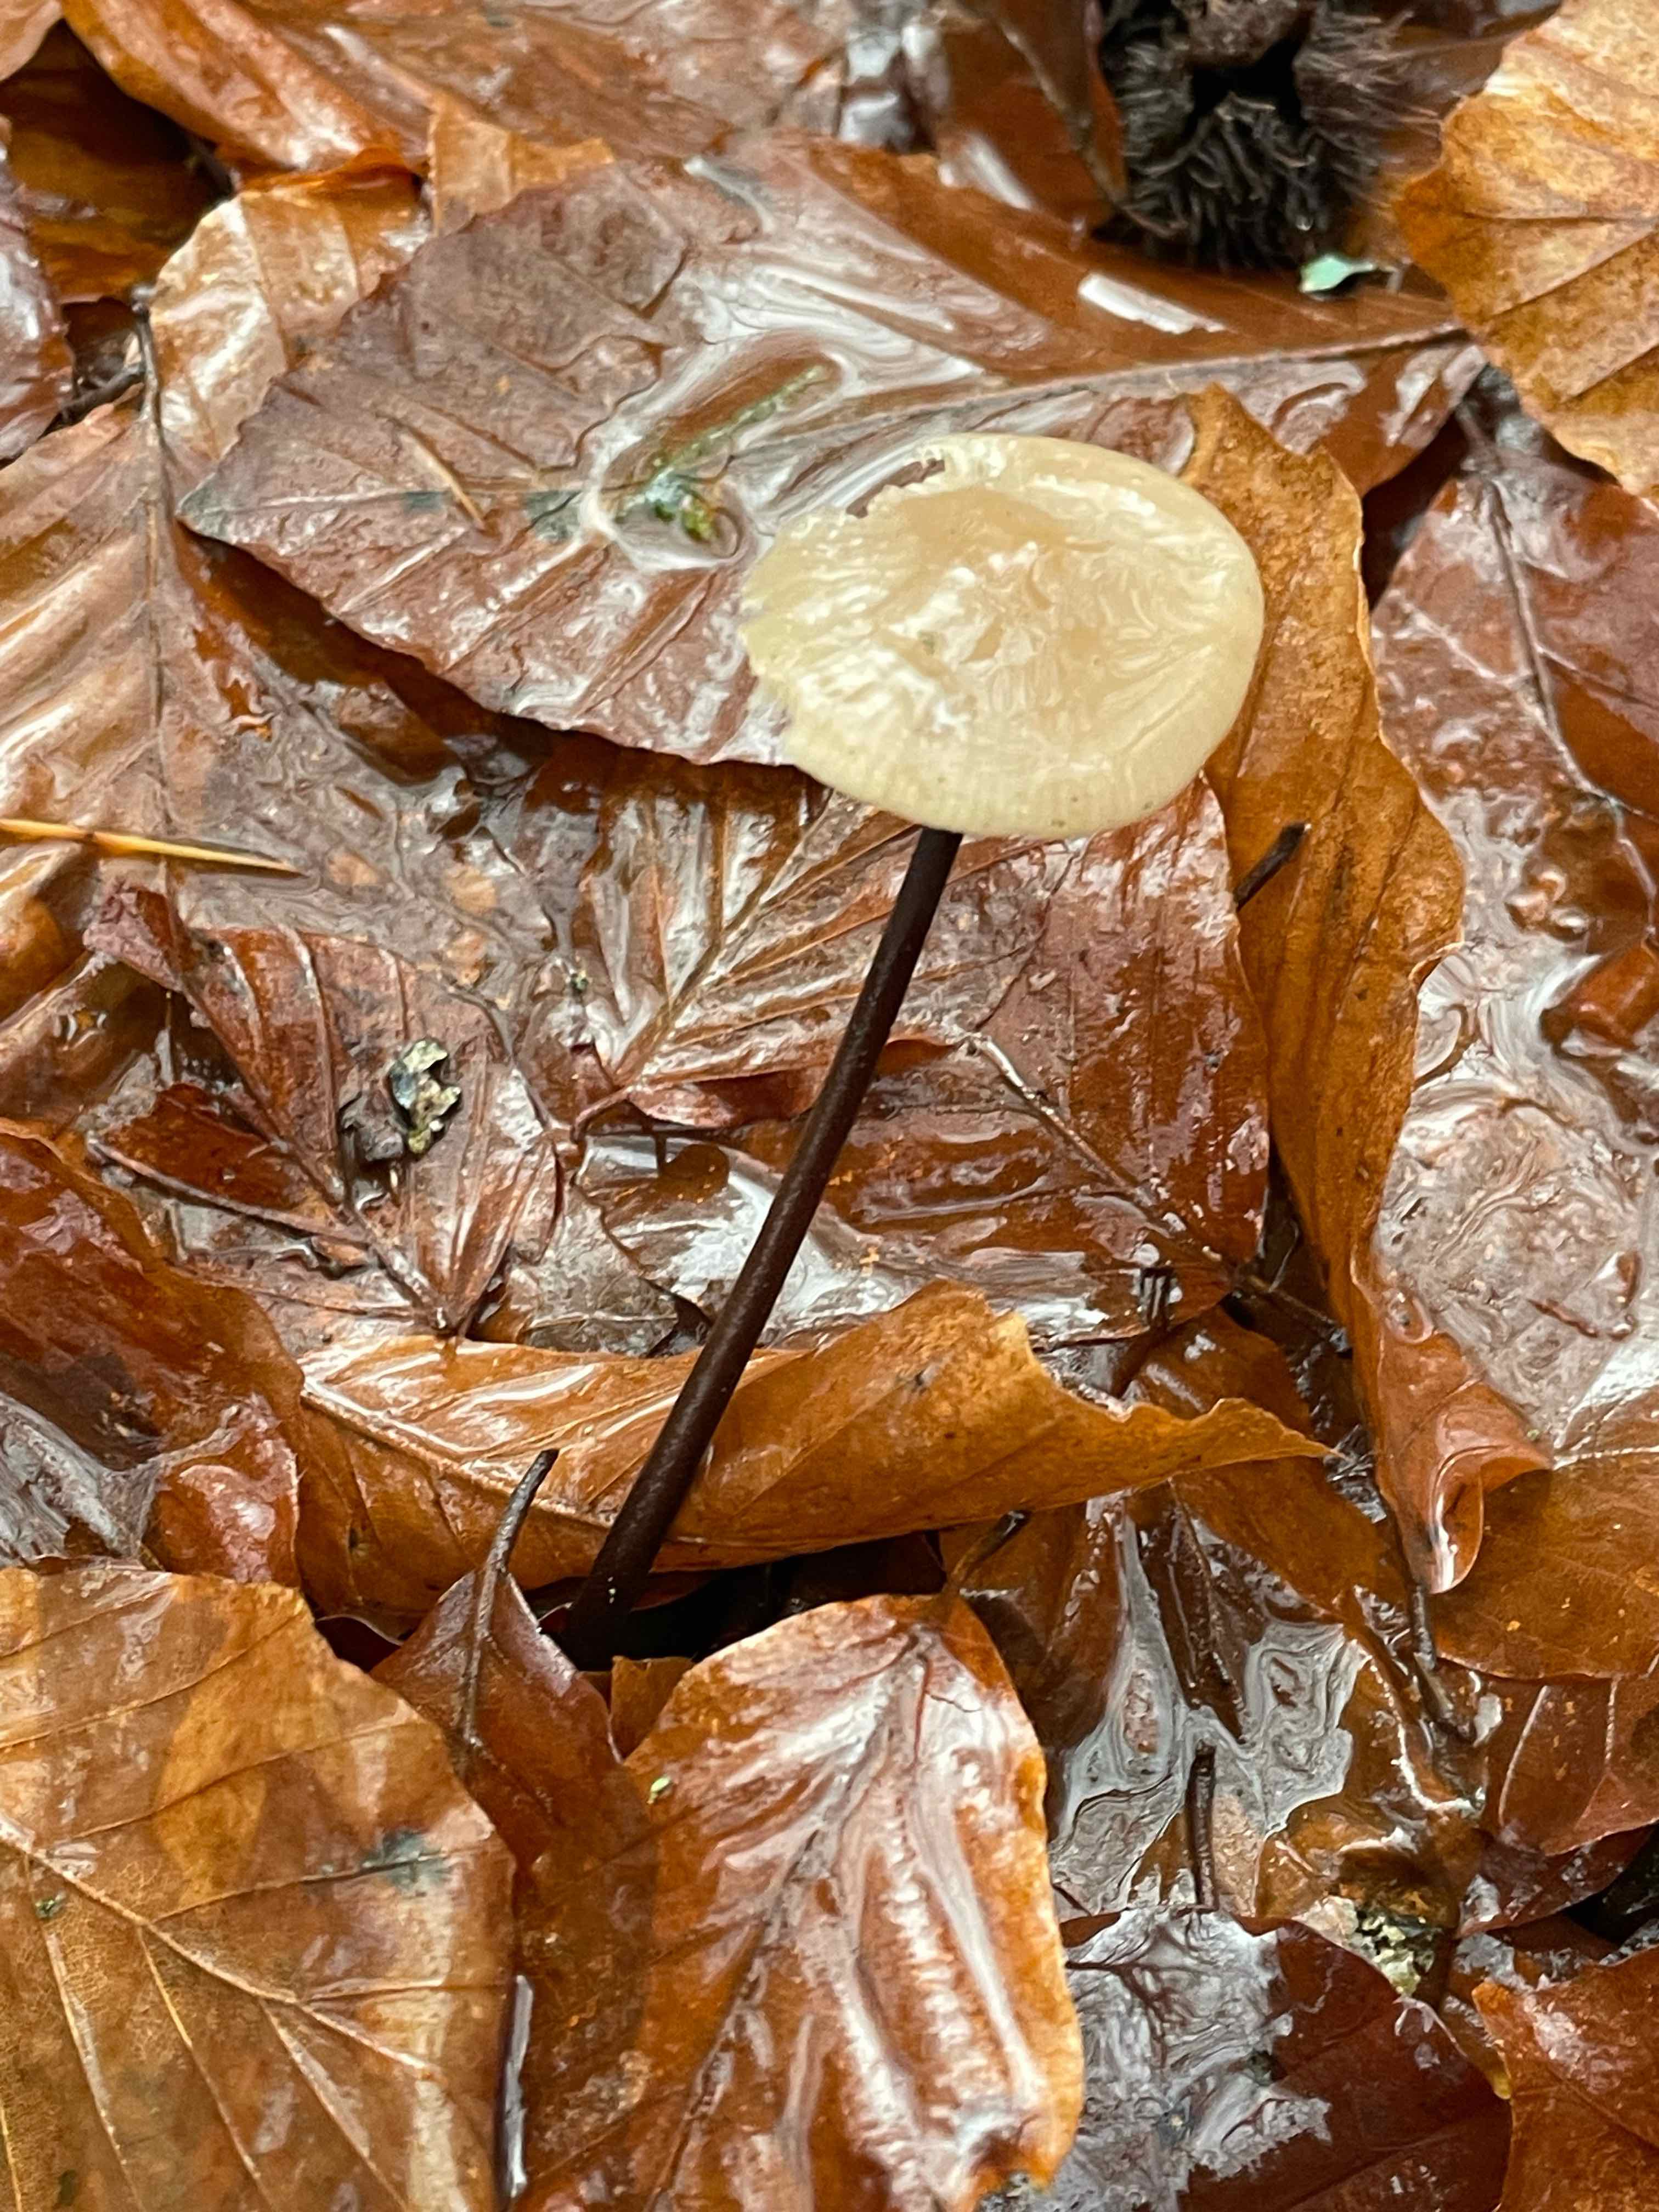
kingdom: Fungi
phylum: Basidiomycota
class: Agaricomycetes
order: Agaricales
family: Omphalotaceae
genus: Mycetinis
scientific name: Mycetinis alliaceus
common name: stor løghat
